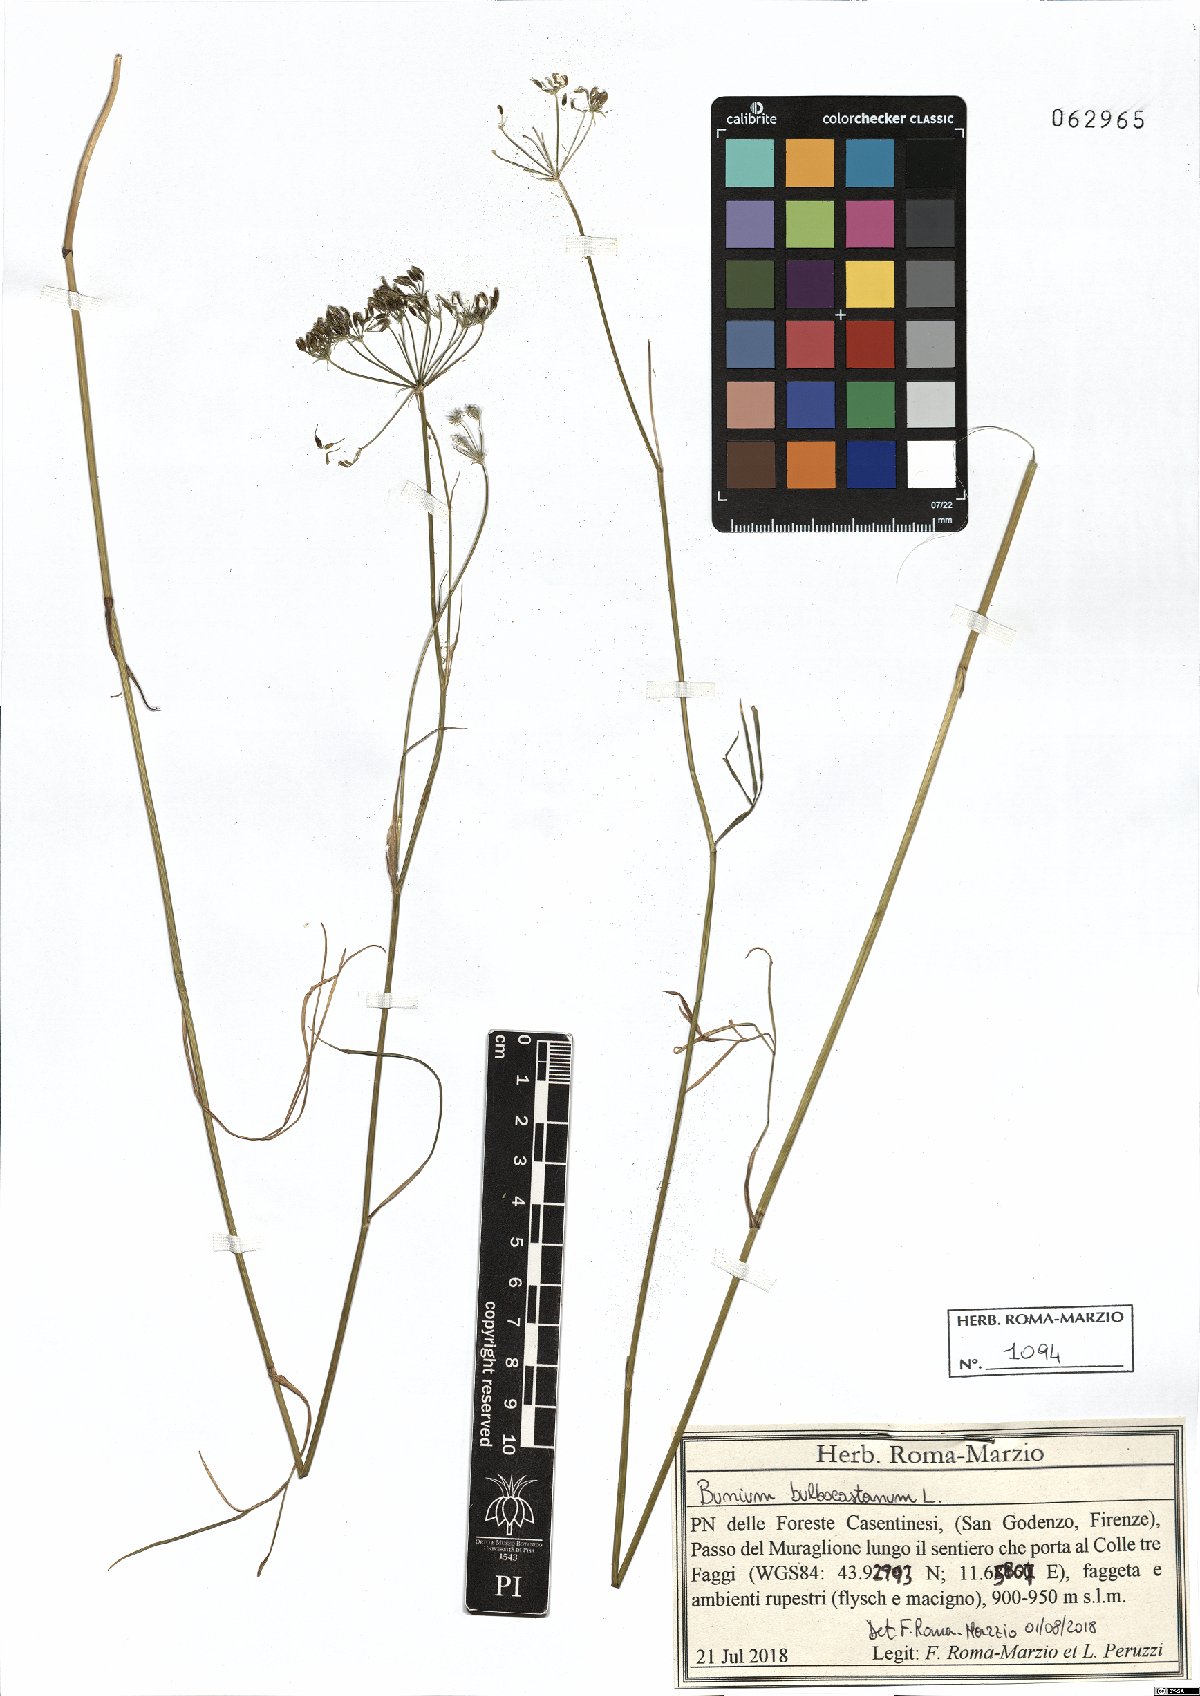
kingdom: Plantae
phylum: Tracheophyta
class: Magnoliopsida
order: Apiales
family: Apiaceae
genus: Bunium
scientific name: Bunium bulbocastanum
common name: Great pignut
